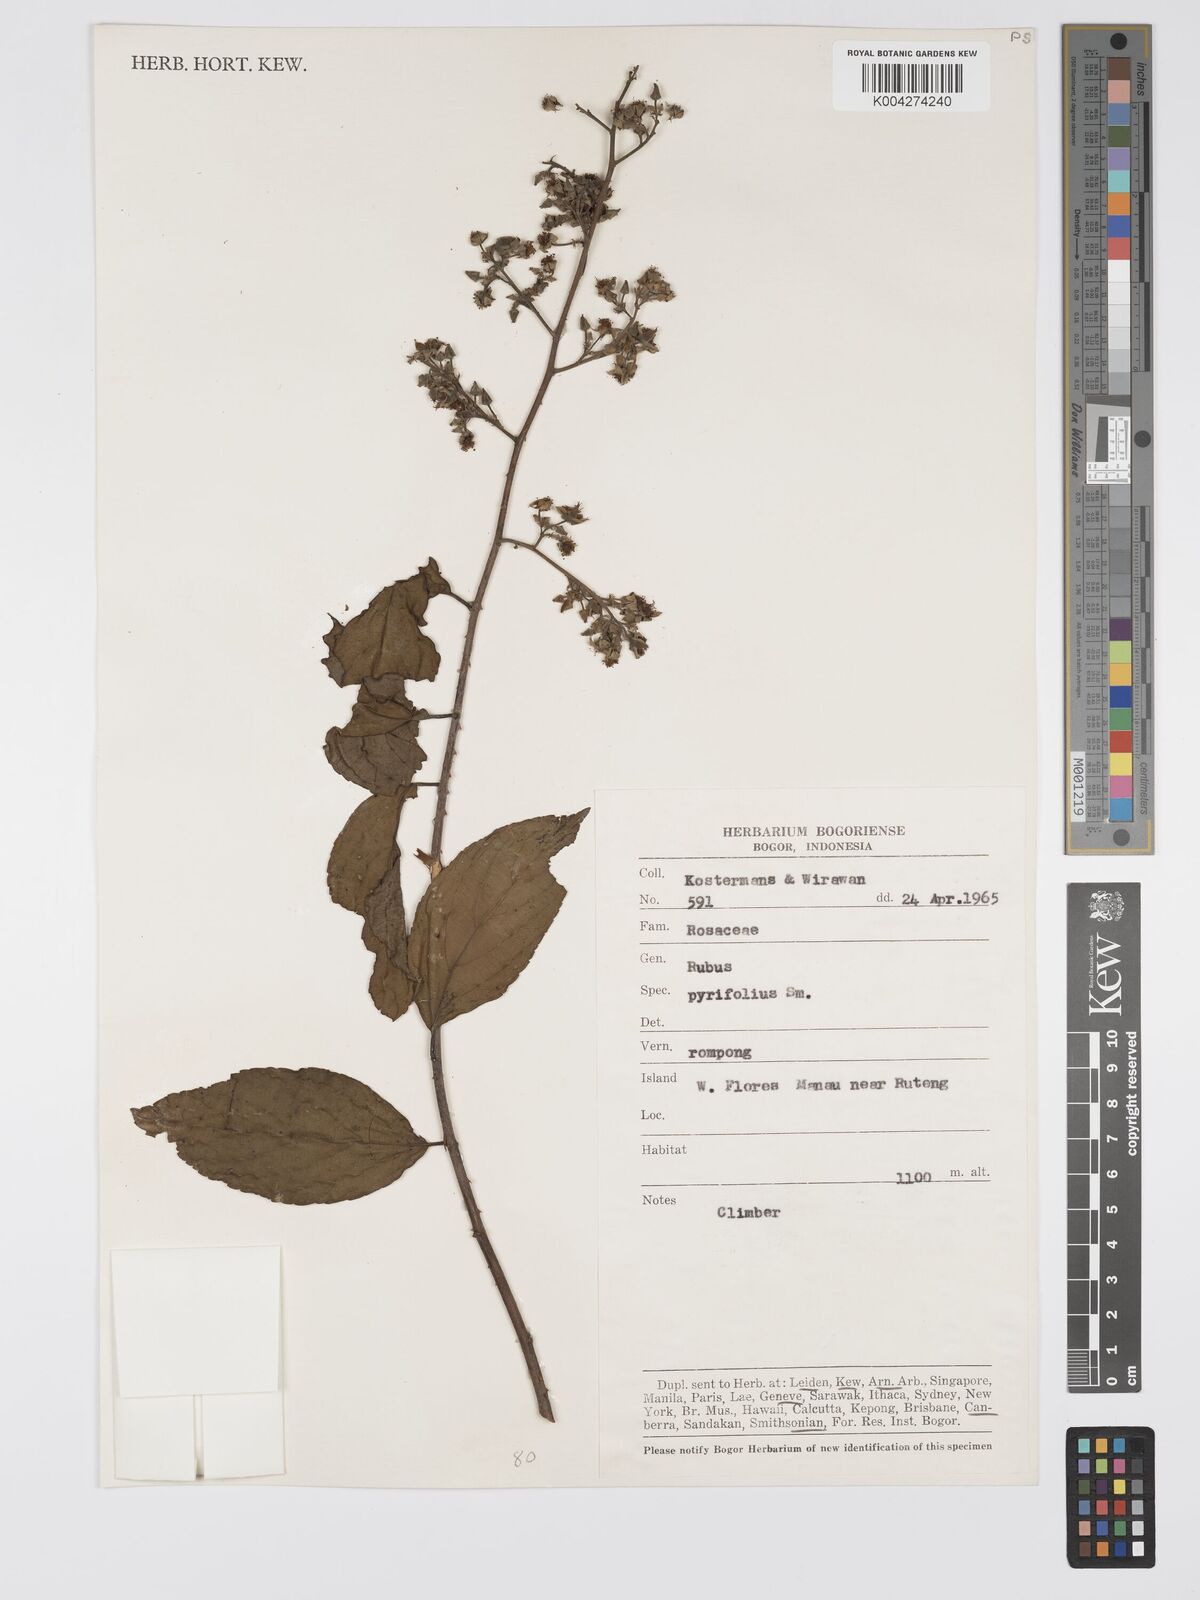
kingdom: Plantae
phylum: Tracheophyta
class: Magnoliopsida
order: Rosales
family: Rosaceae
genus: Rubus
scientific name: Rubus pirifolius
